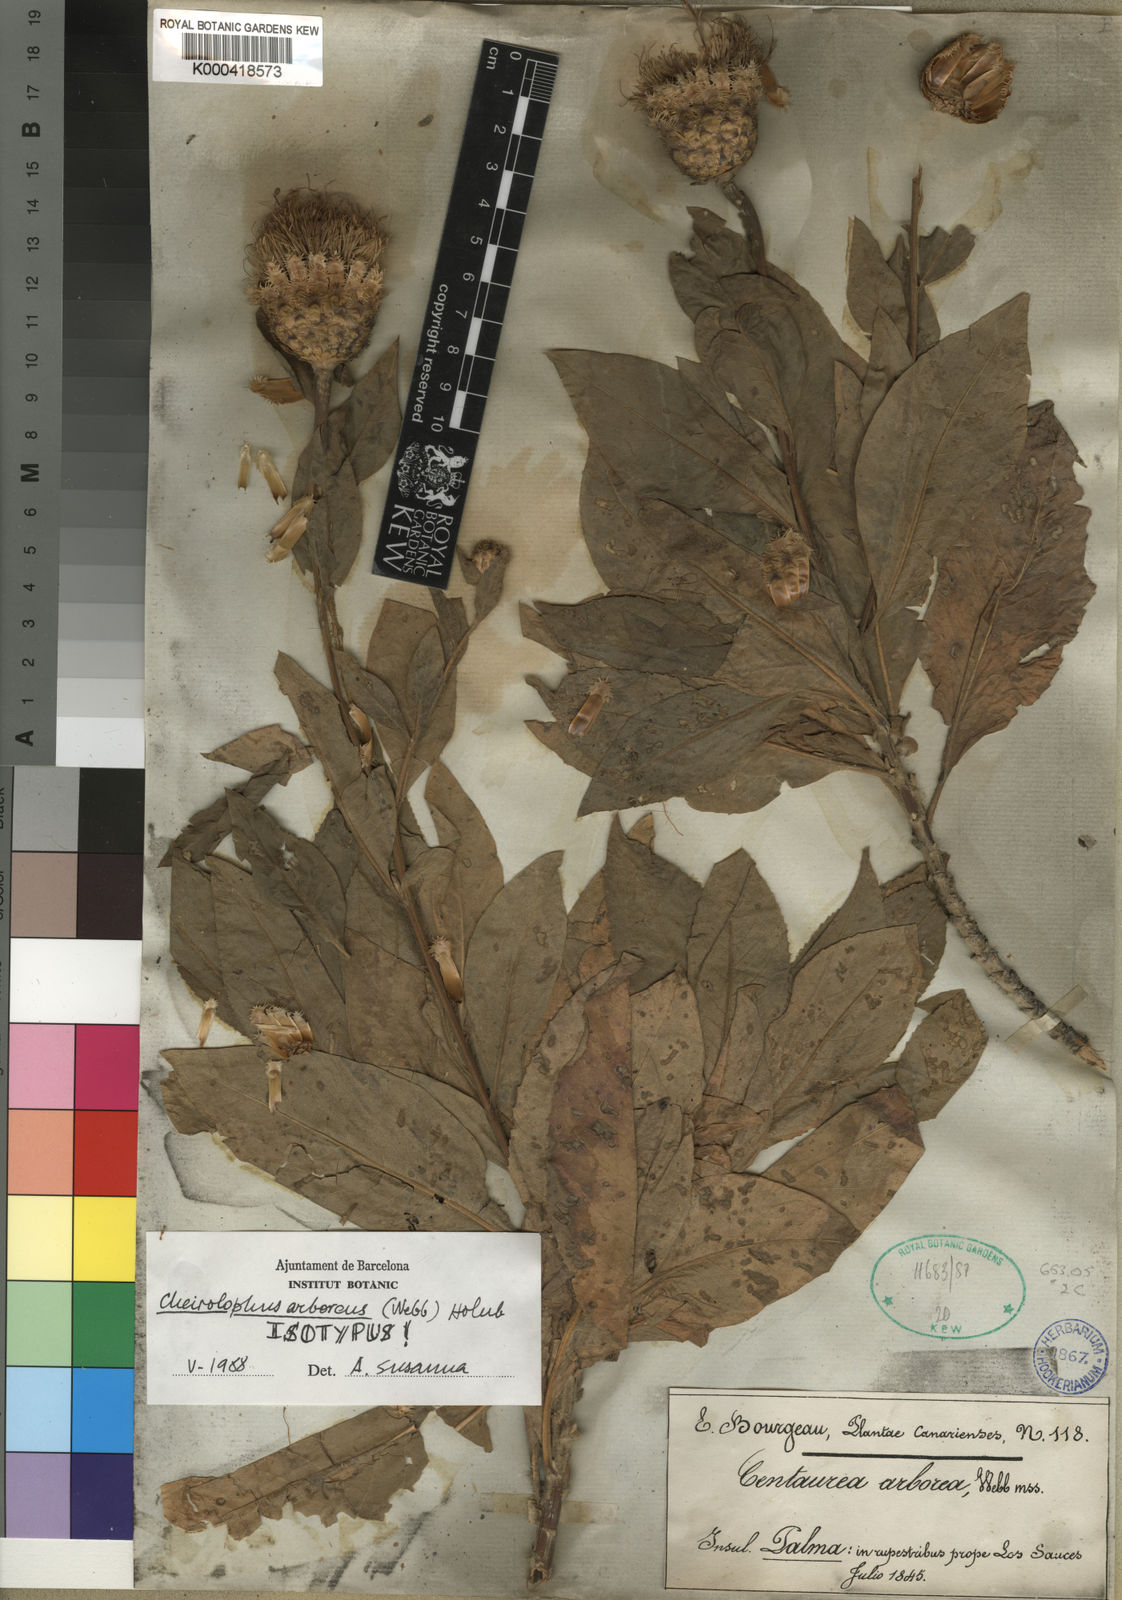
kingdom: Plantae
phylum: Tracheophyta
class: Magnoliopsida
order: Asterales
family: Asteraceae
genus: Cheirolophus
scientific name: Cheirolophus arboreus
